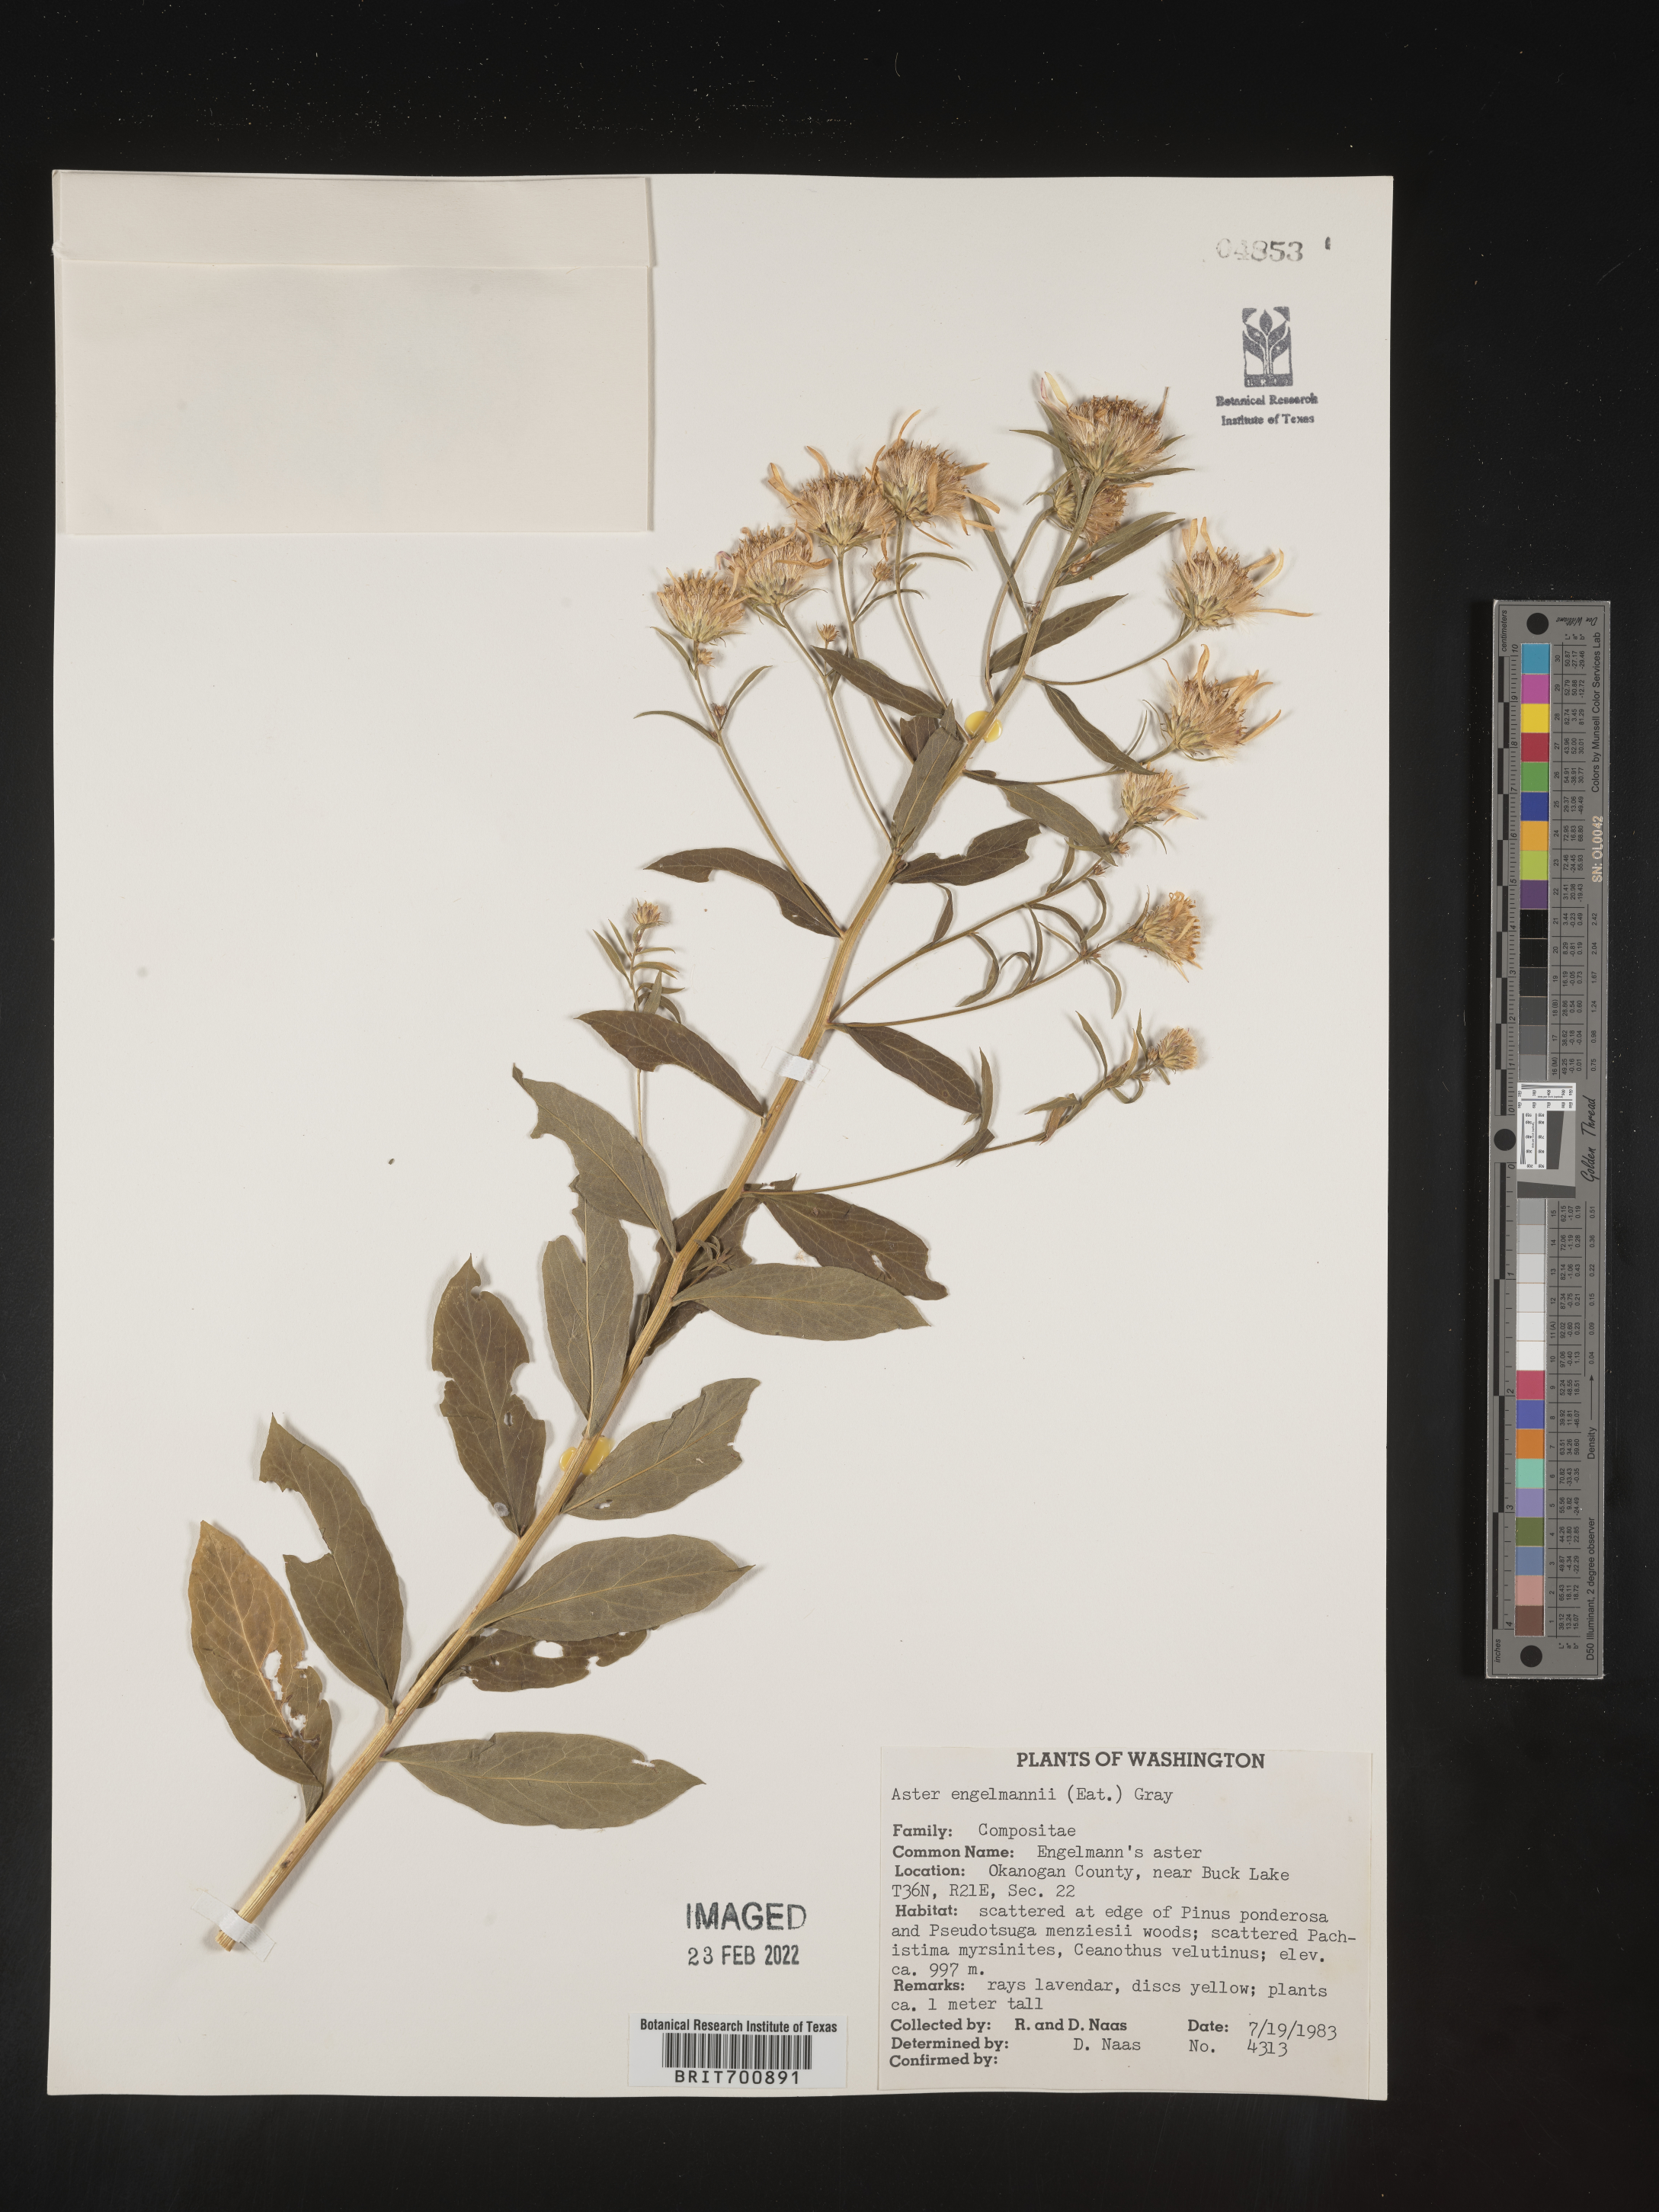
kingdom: Plantae
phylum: Tracheophyta
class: Magnoliopsida
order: Asterales
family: Asteraceae
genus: Eucephalus
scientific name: Eucephalus engelmannii
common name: Engelmann's aster
